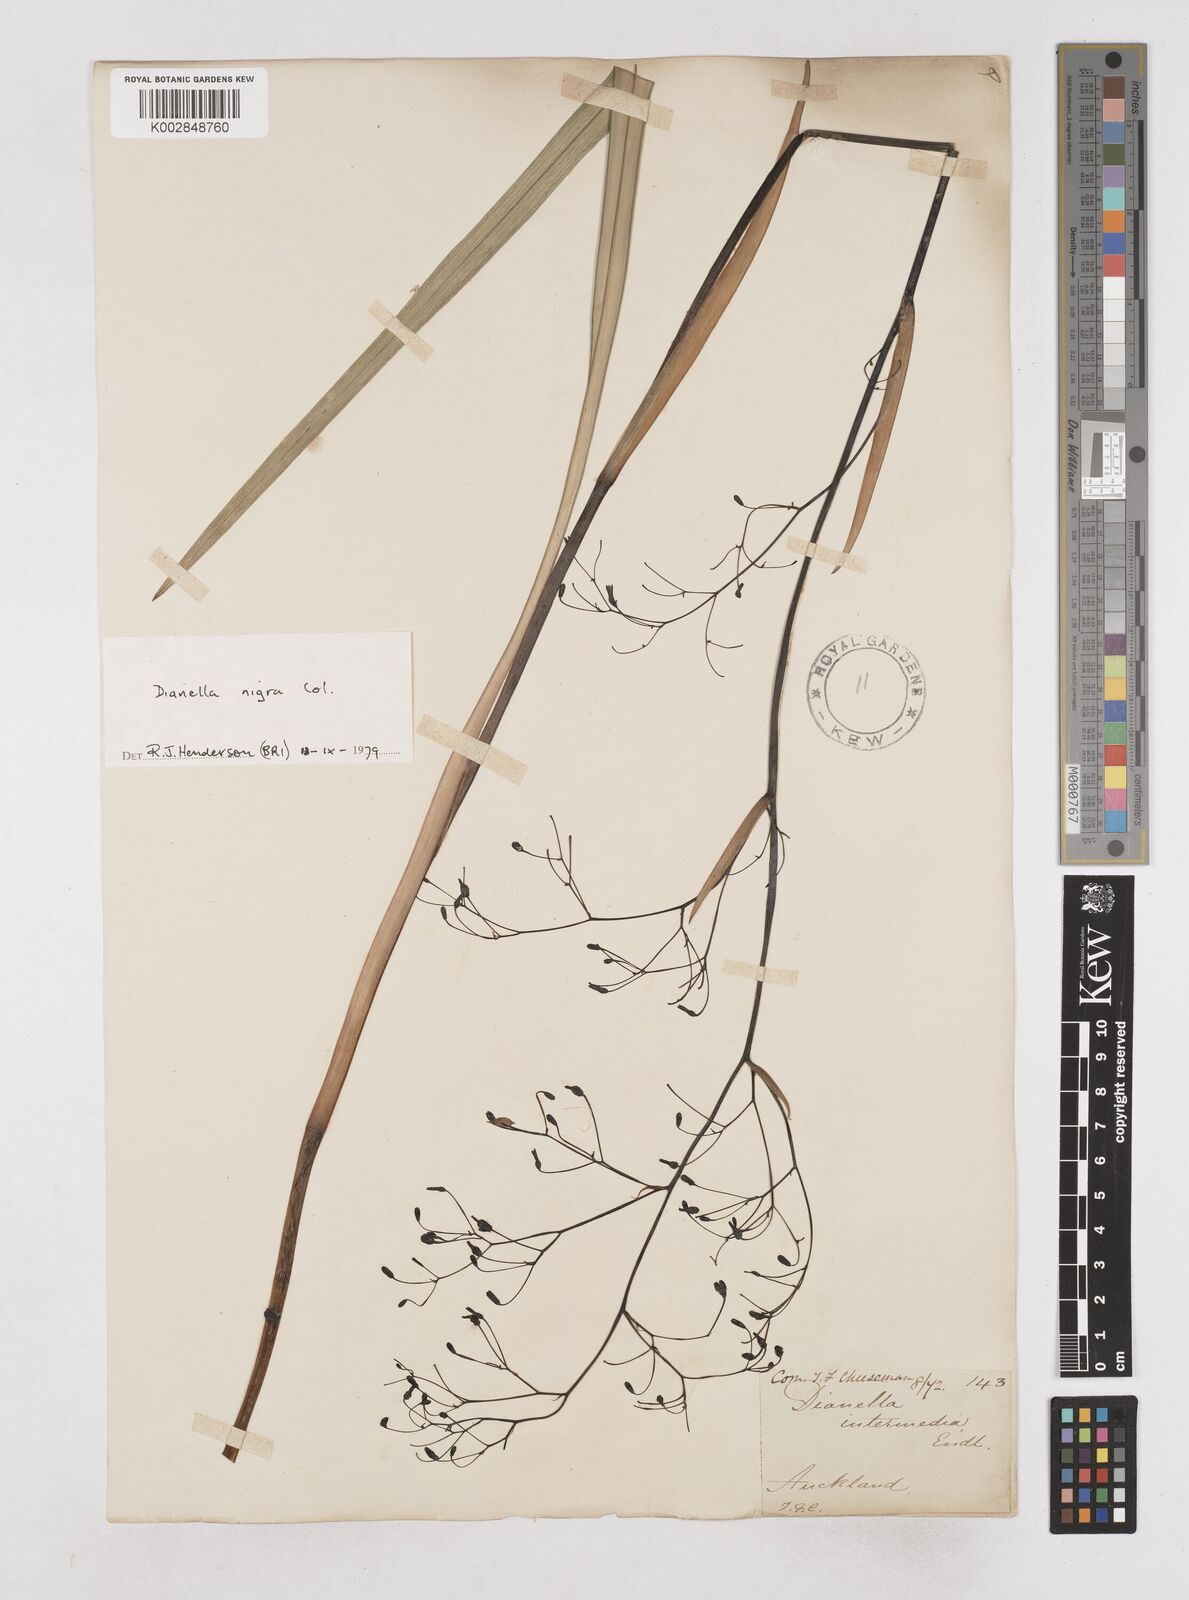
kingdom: Plantae
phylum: Tracheophyta
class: Liliopsida
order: Asparagales
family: Asphodelaceae
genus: Dianella
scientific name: Dianella nigra
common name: New zealand-blueberry
